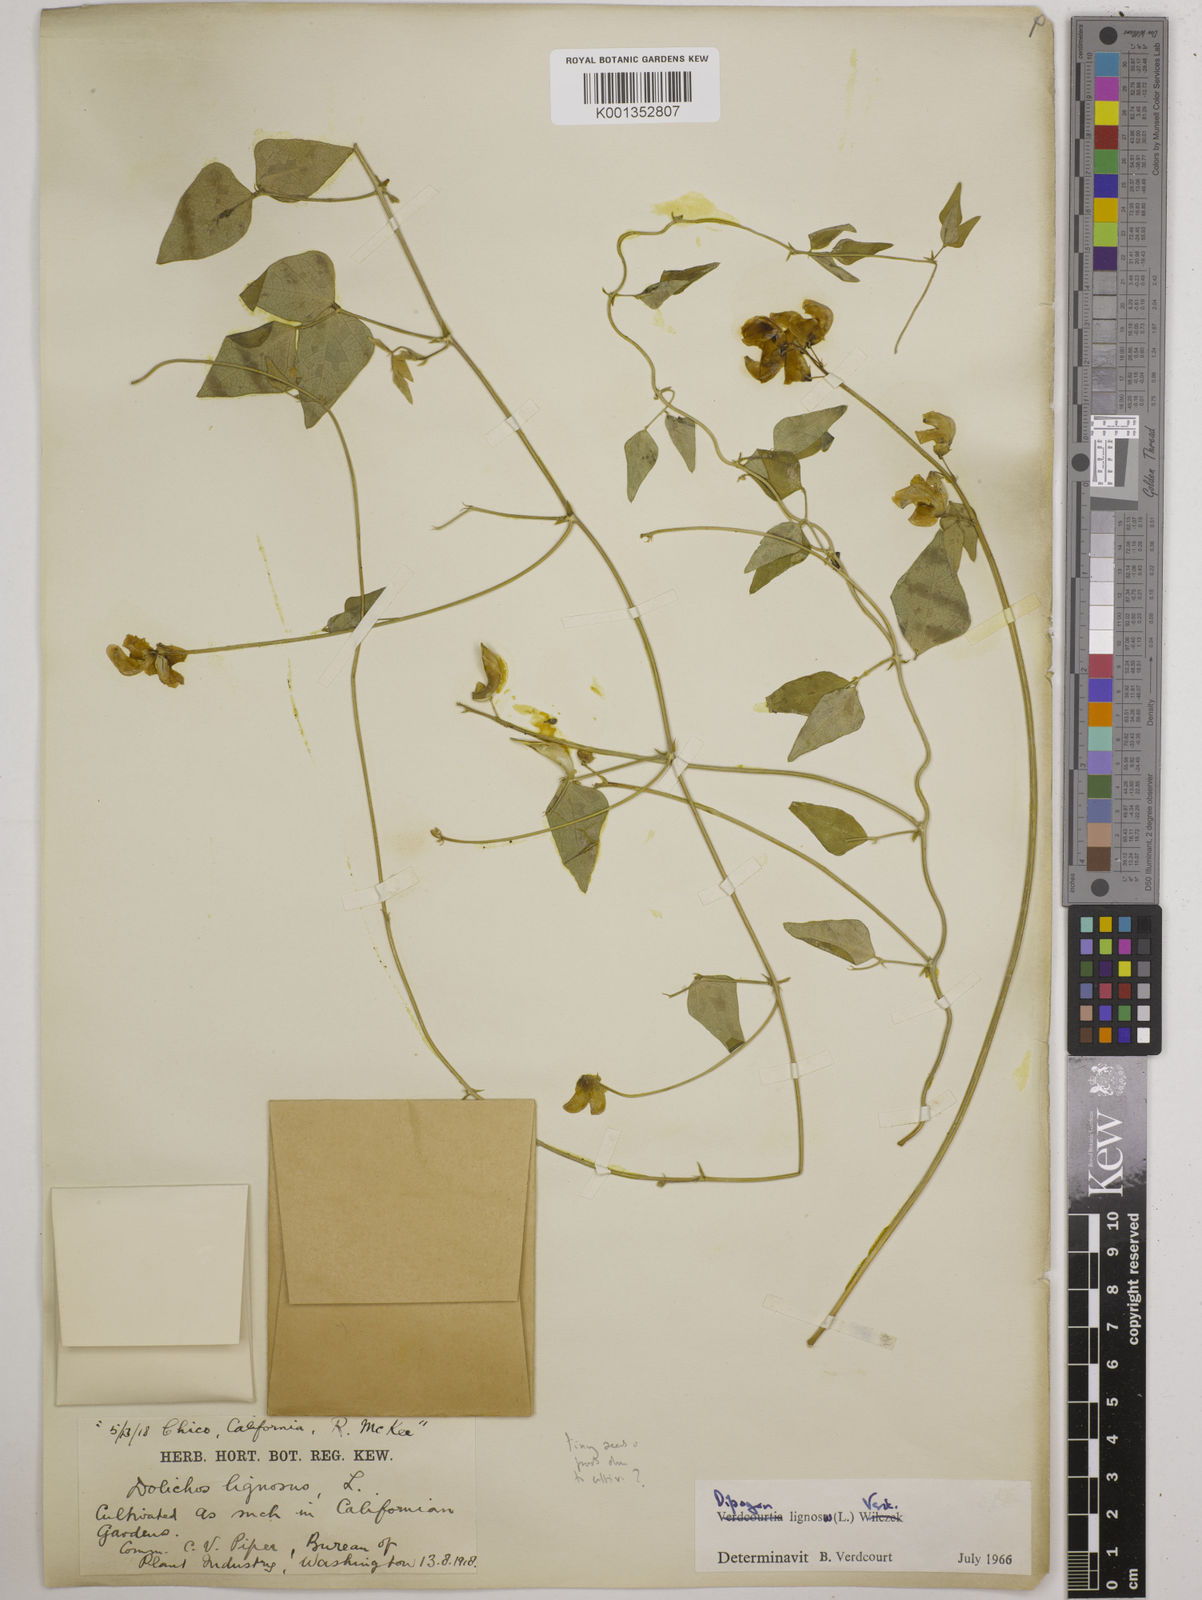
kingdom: Plantae
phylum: Tracheophyta
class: Magnoliopsida
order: Fabales
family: Fabaceae
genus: Dipogon
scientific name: Dipogon lignosus
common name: Okie bean
